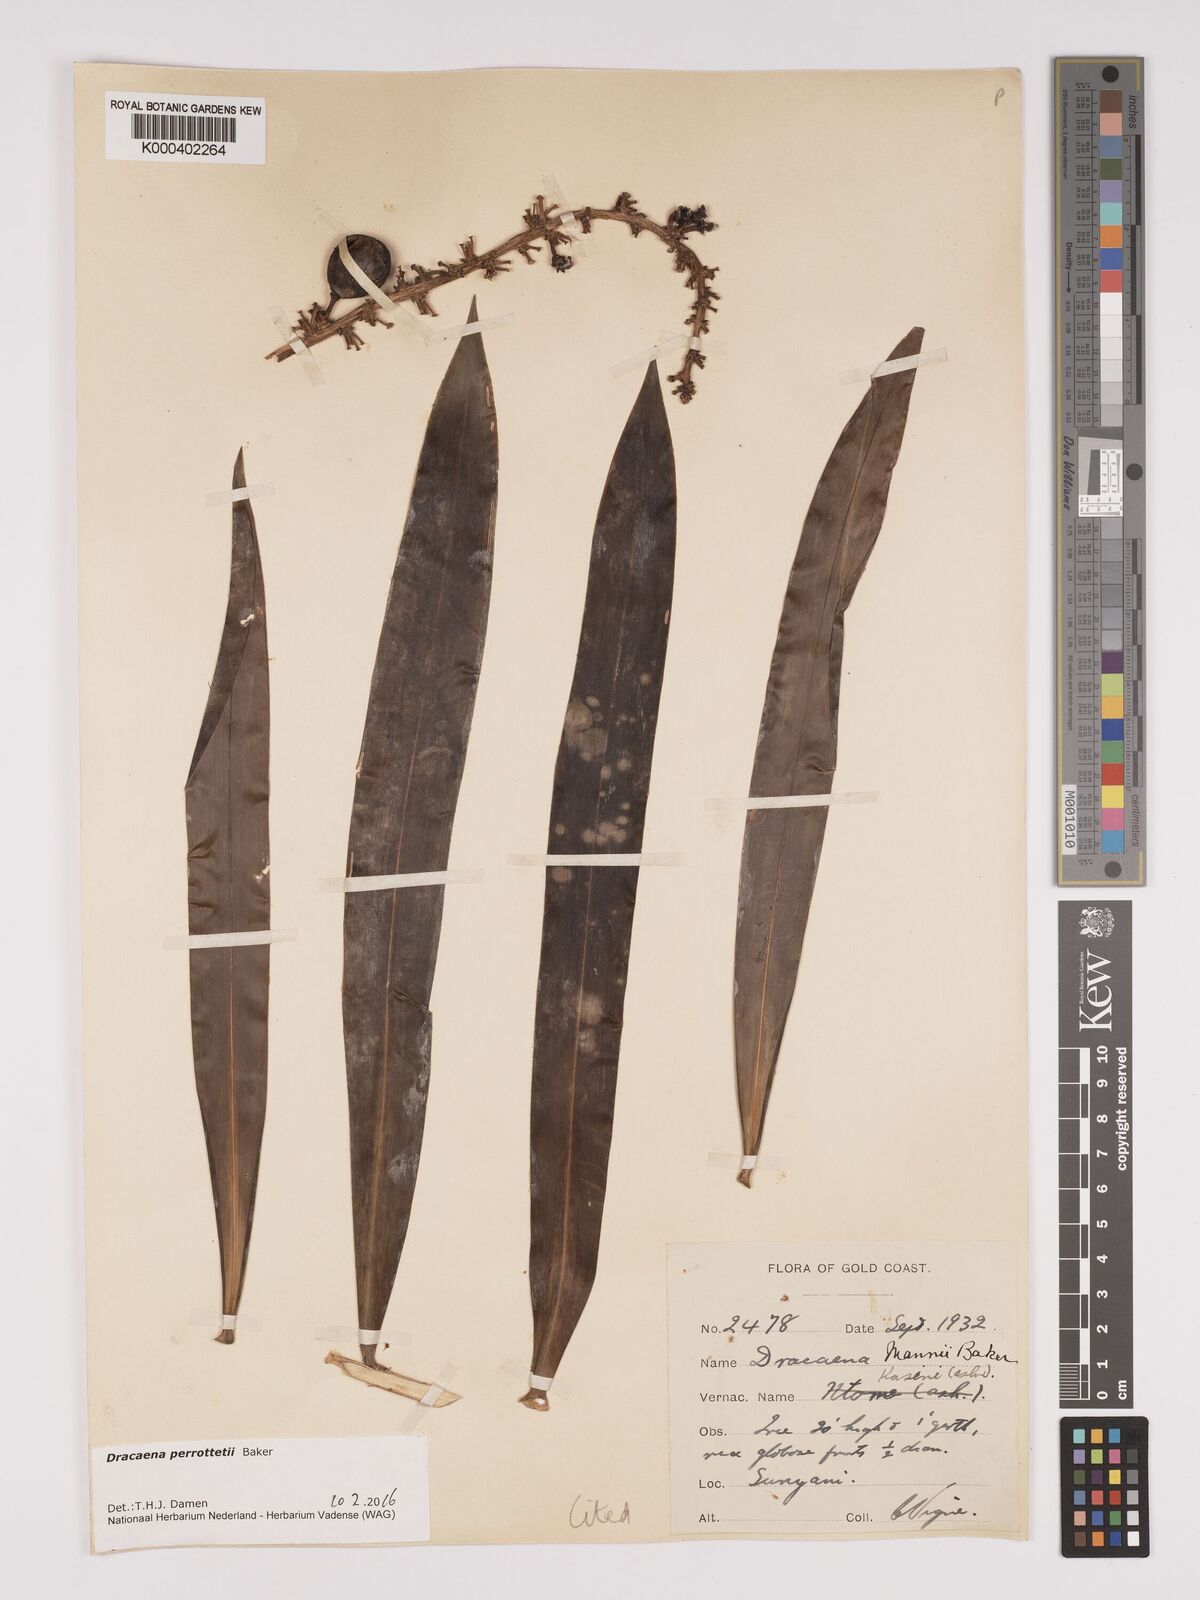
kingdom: Plantae
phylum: Tracheophyta
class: Liliopsida
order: Asparagales
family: Asparagaceae
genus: Dracaena
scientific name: Dracaena perrottetii
